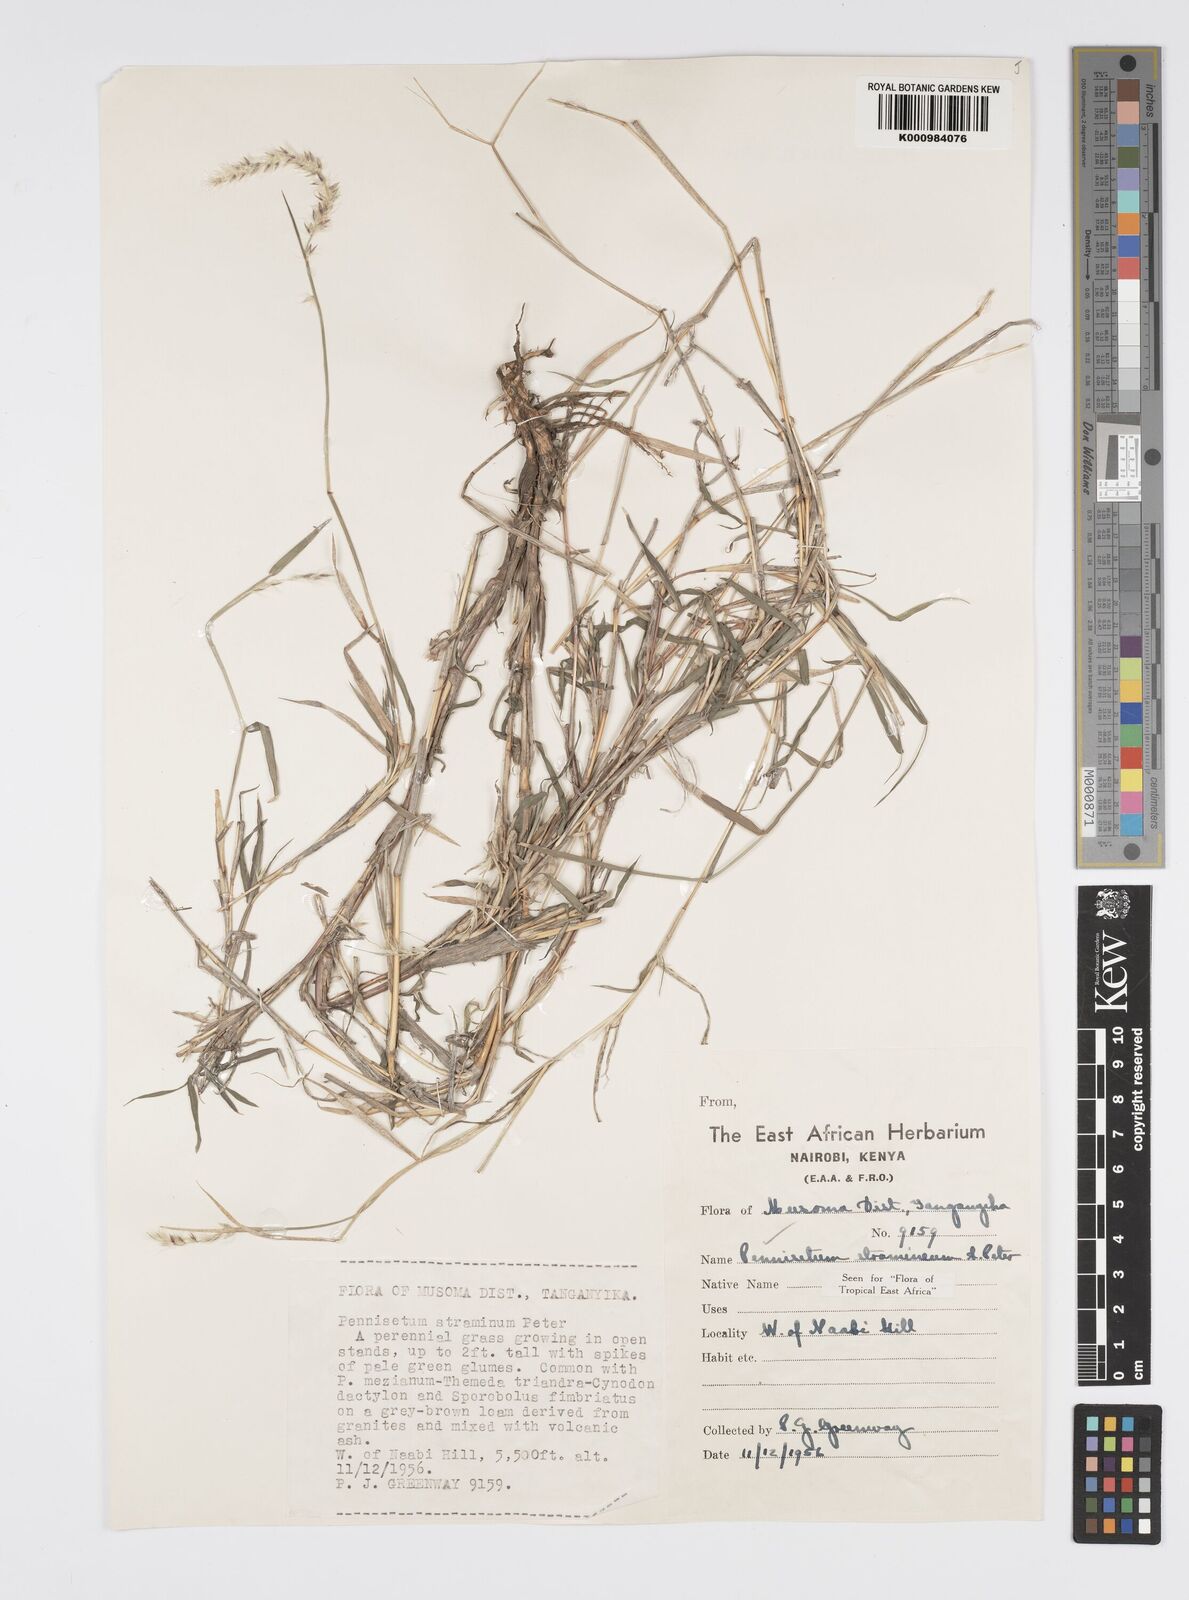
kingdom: Plantae
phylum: Tracheophyta
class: Liliopsida
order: Poales
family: Poaceae
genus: Cenchrus
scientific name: Cenchrus stramineus
